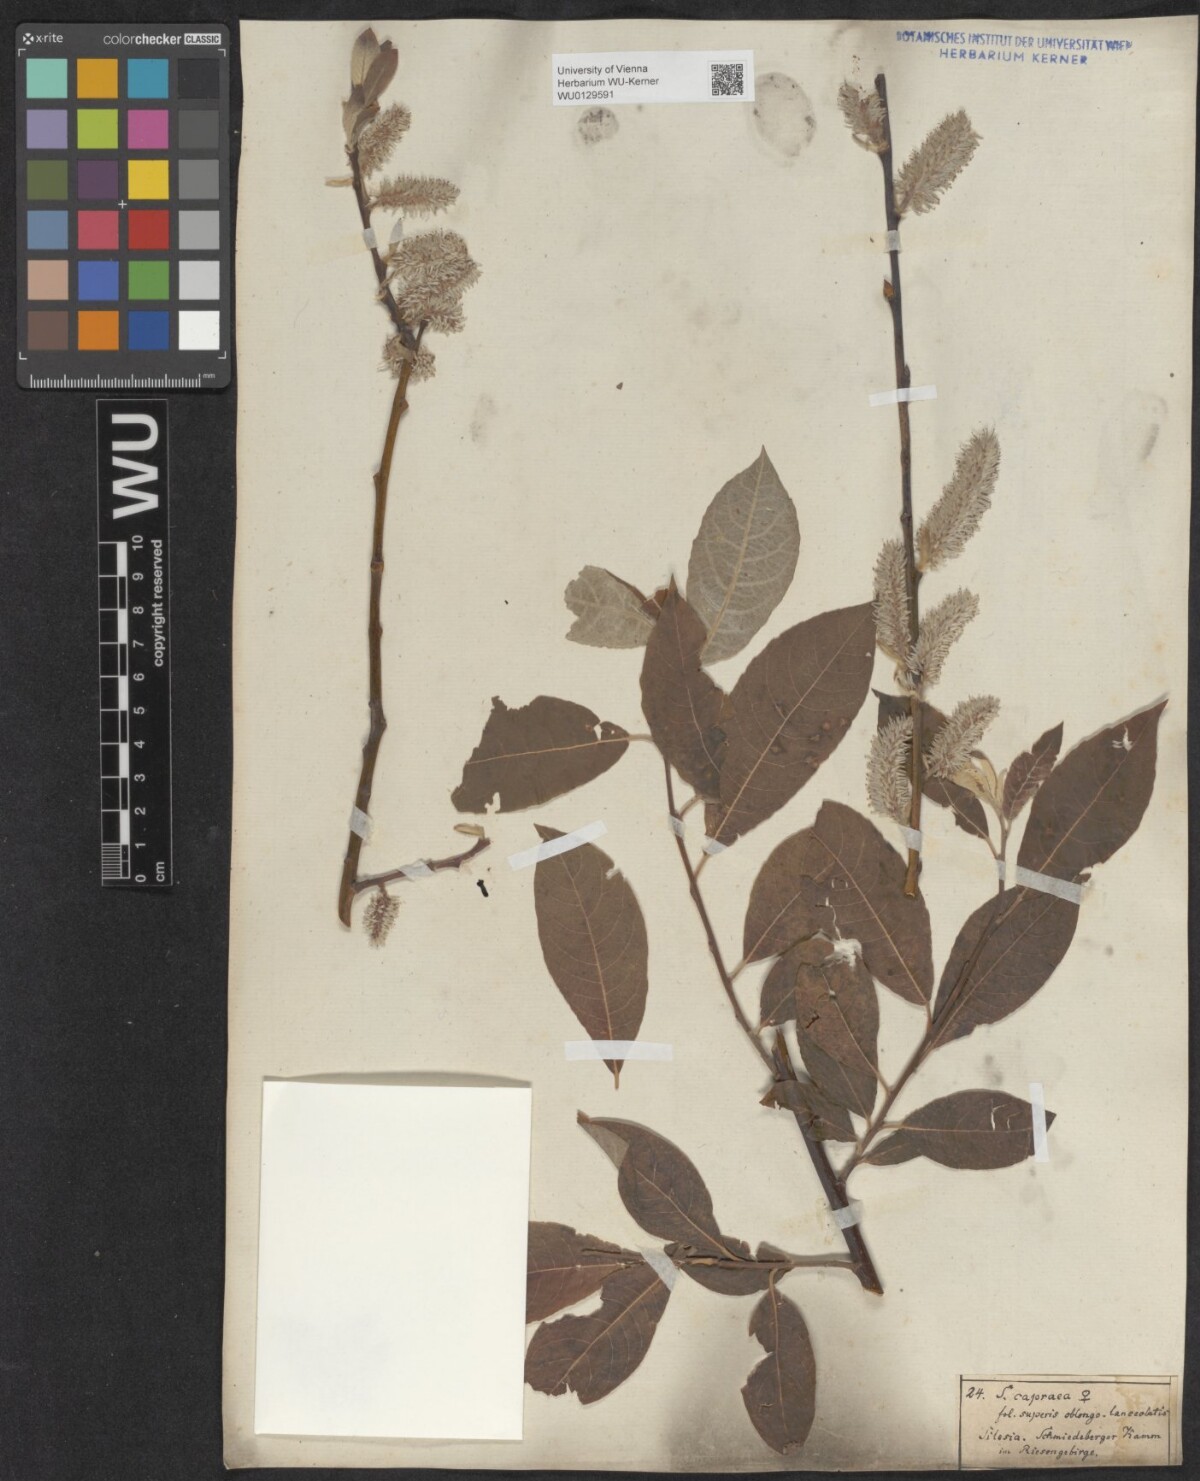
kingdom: Plantae
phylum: Tracheophyta
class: Magnoliopsida
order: Malpighiales
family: Salicaceae
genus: Salix
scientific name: Salix caprea
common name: Goat willow
